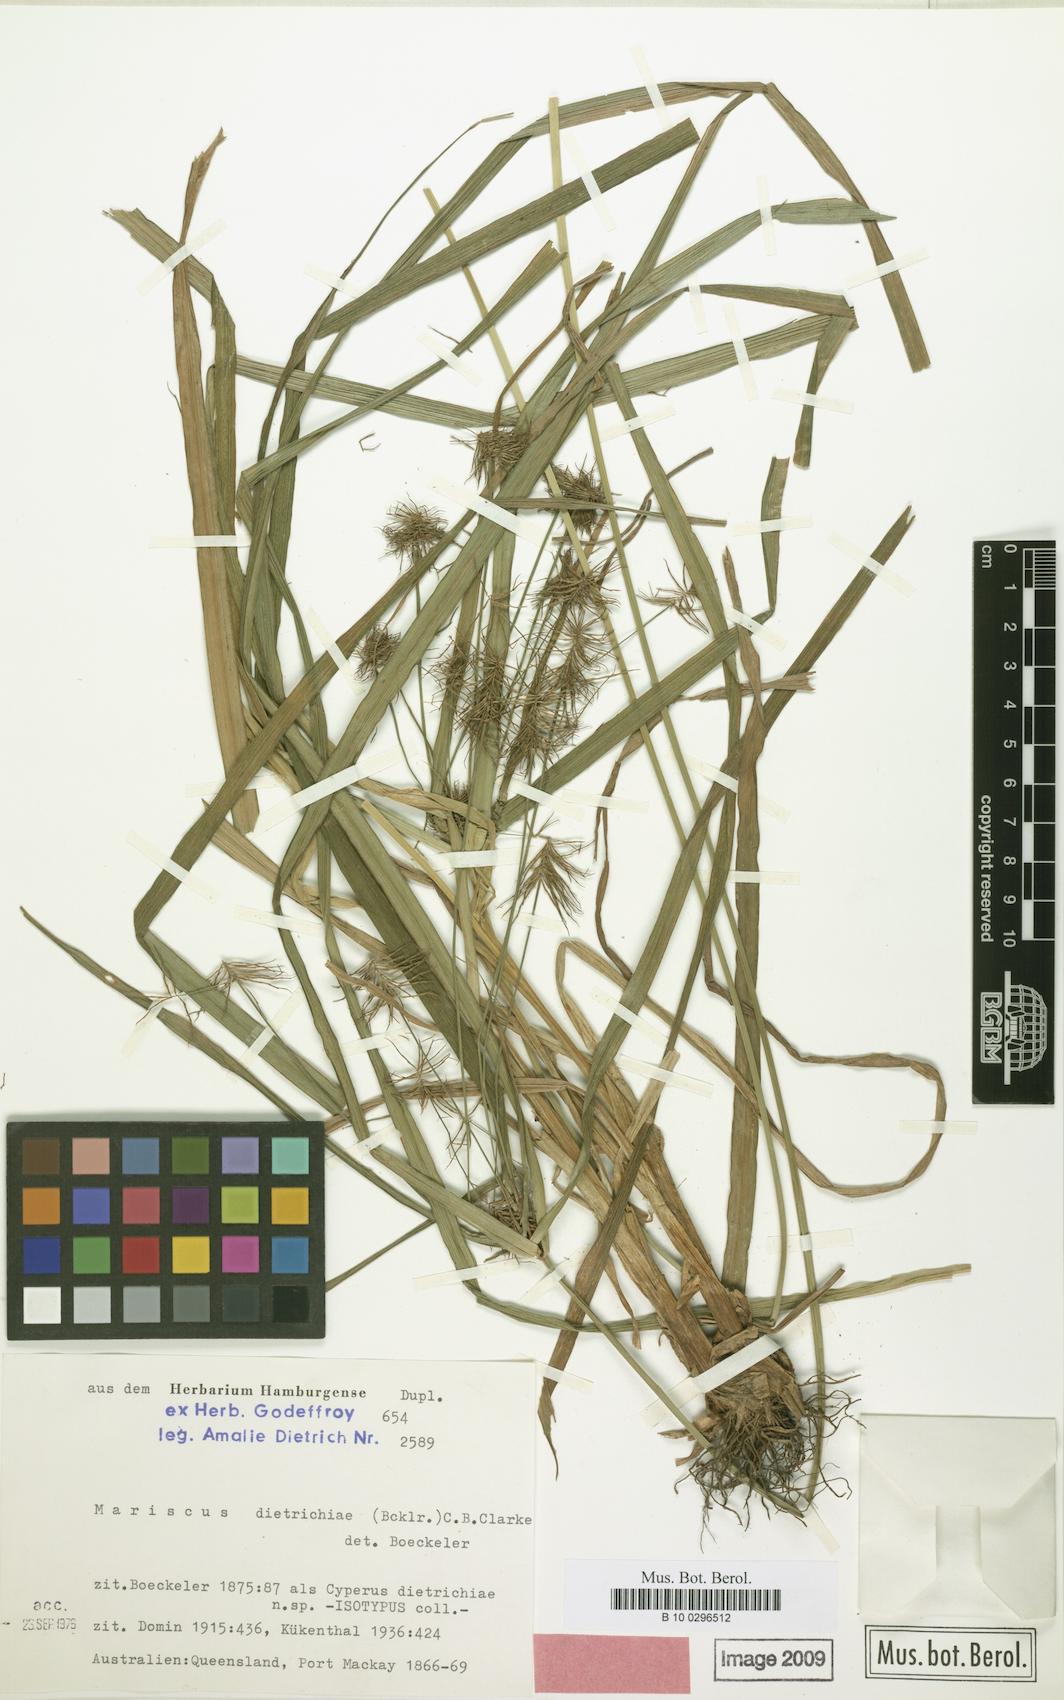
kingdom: Plantae
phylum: Tracheophyta
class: Liliopsida
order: Poales
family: Cyperaceae
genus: Cyperus
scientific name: Cyperus dietrichiae
